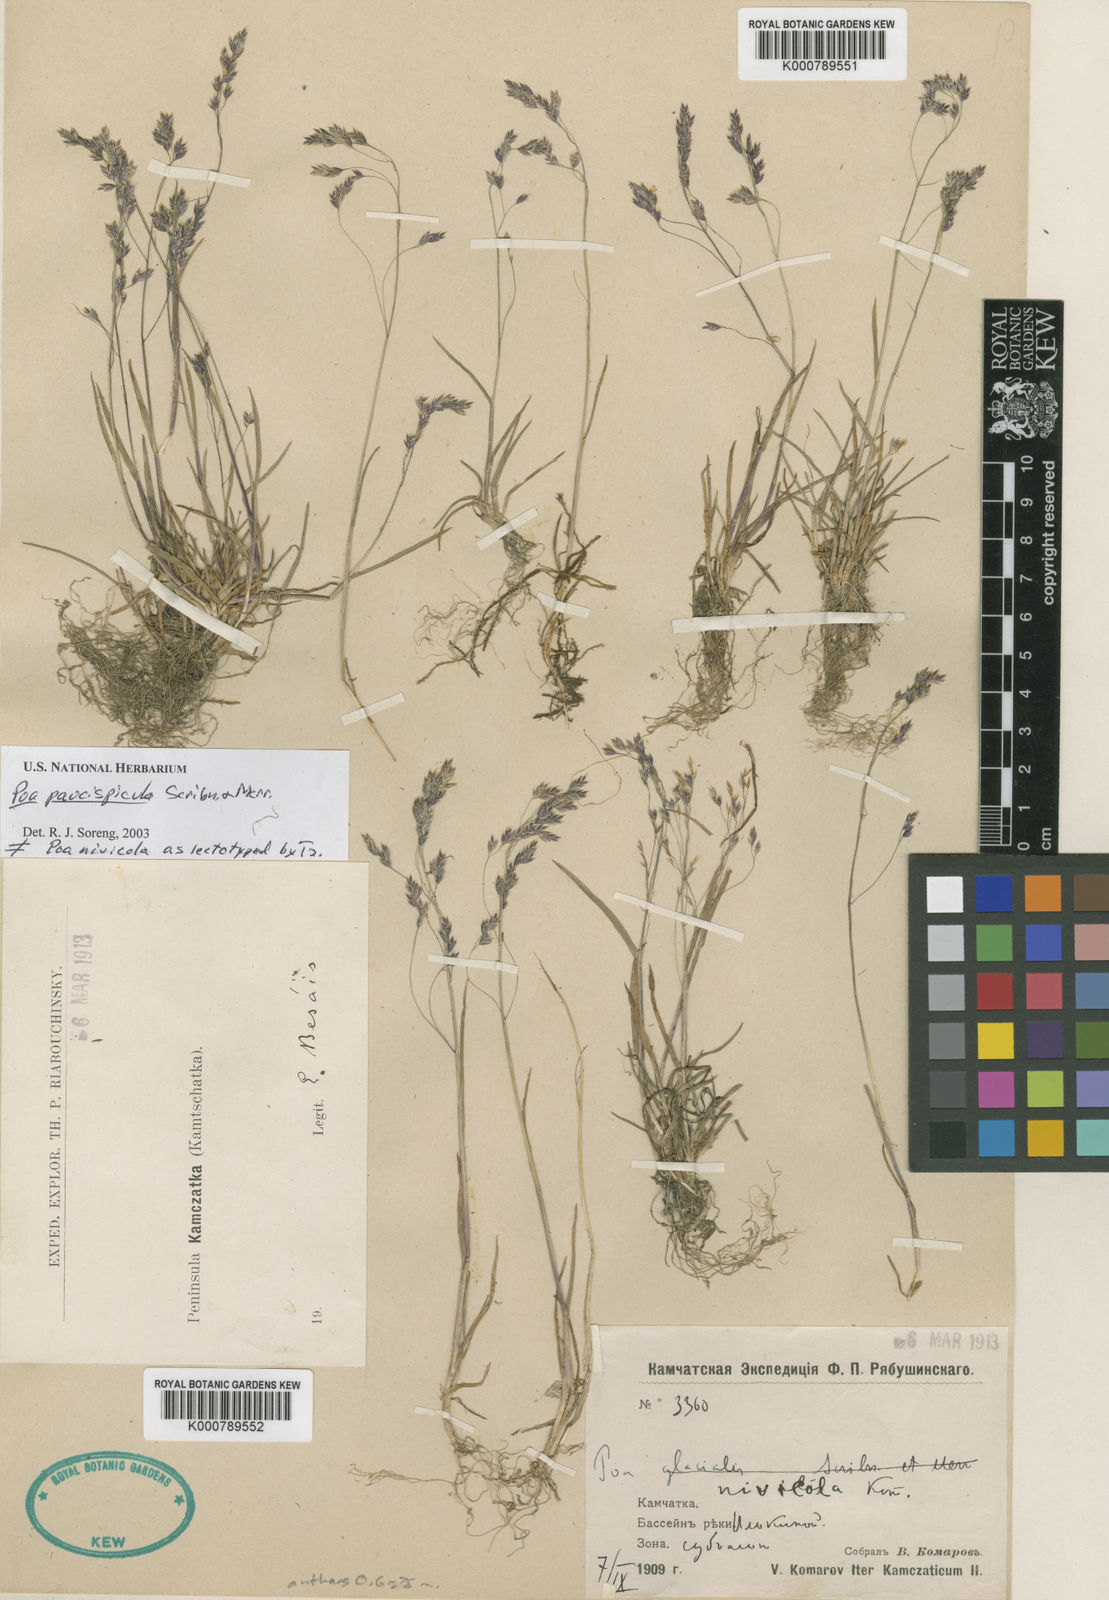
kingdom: Plantae
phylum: Tracheophyta
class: Liliopsida
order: Poales
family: Poaceae
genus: Poa
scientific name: Poa shumushuensis
